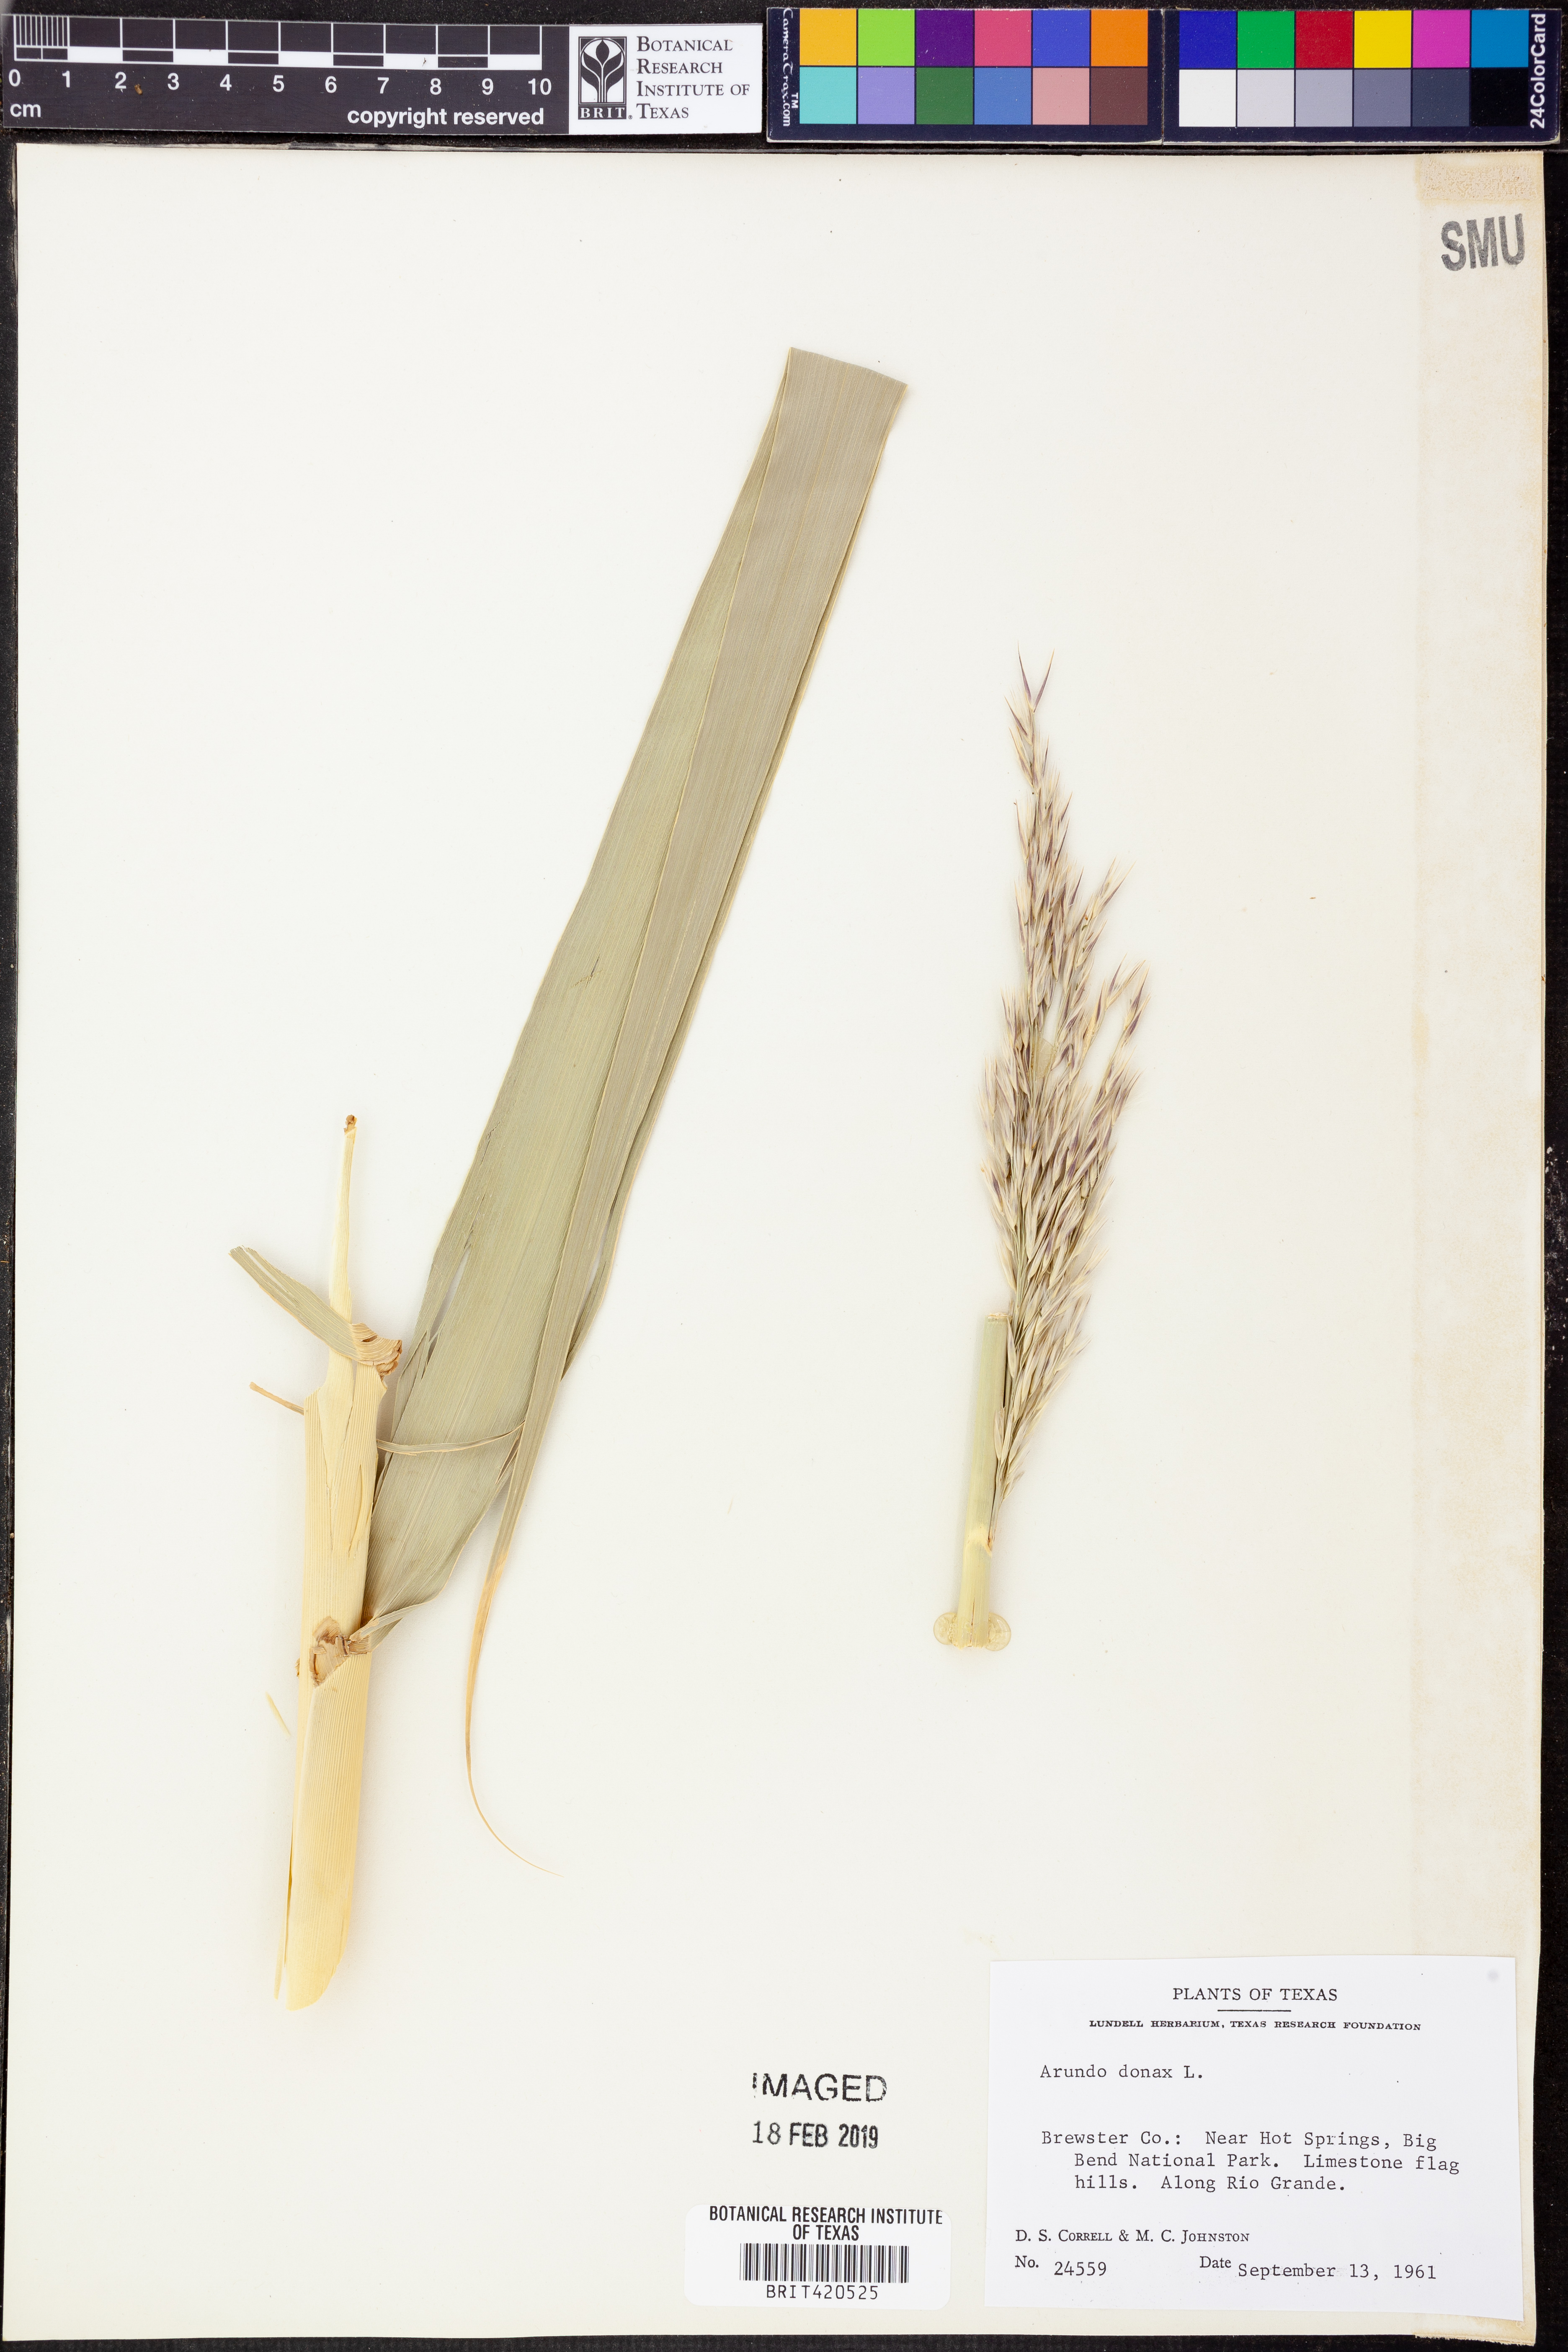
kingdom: Plantae
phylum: Tracheophyta
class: Liliopsida
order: Poales
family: Poaceae
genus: Arundo
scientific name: Arundo donax
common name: Giant reed
